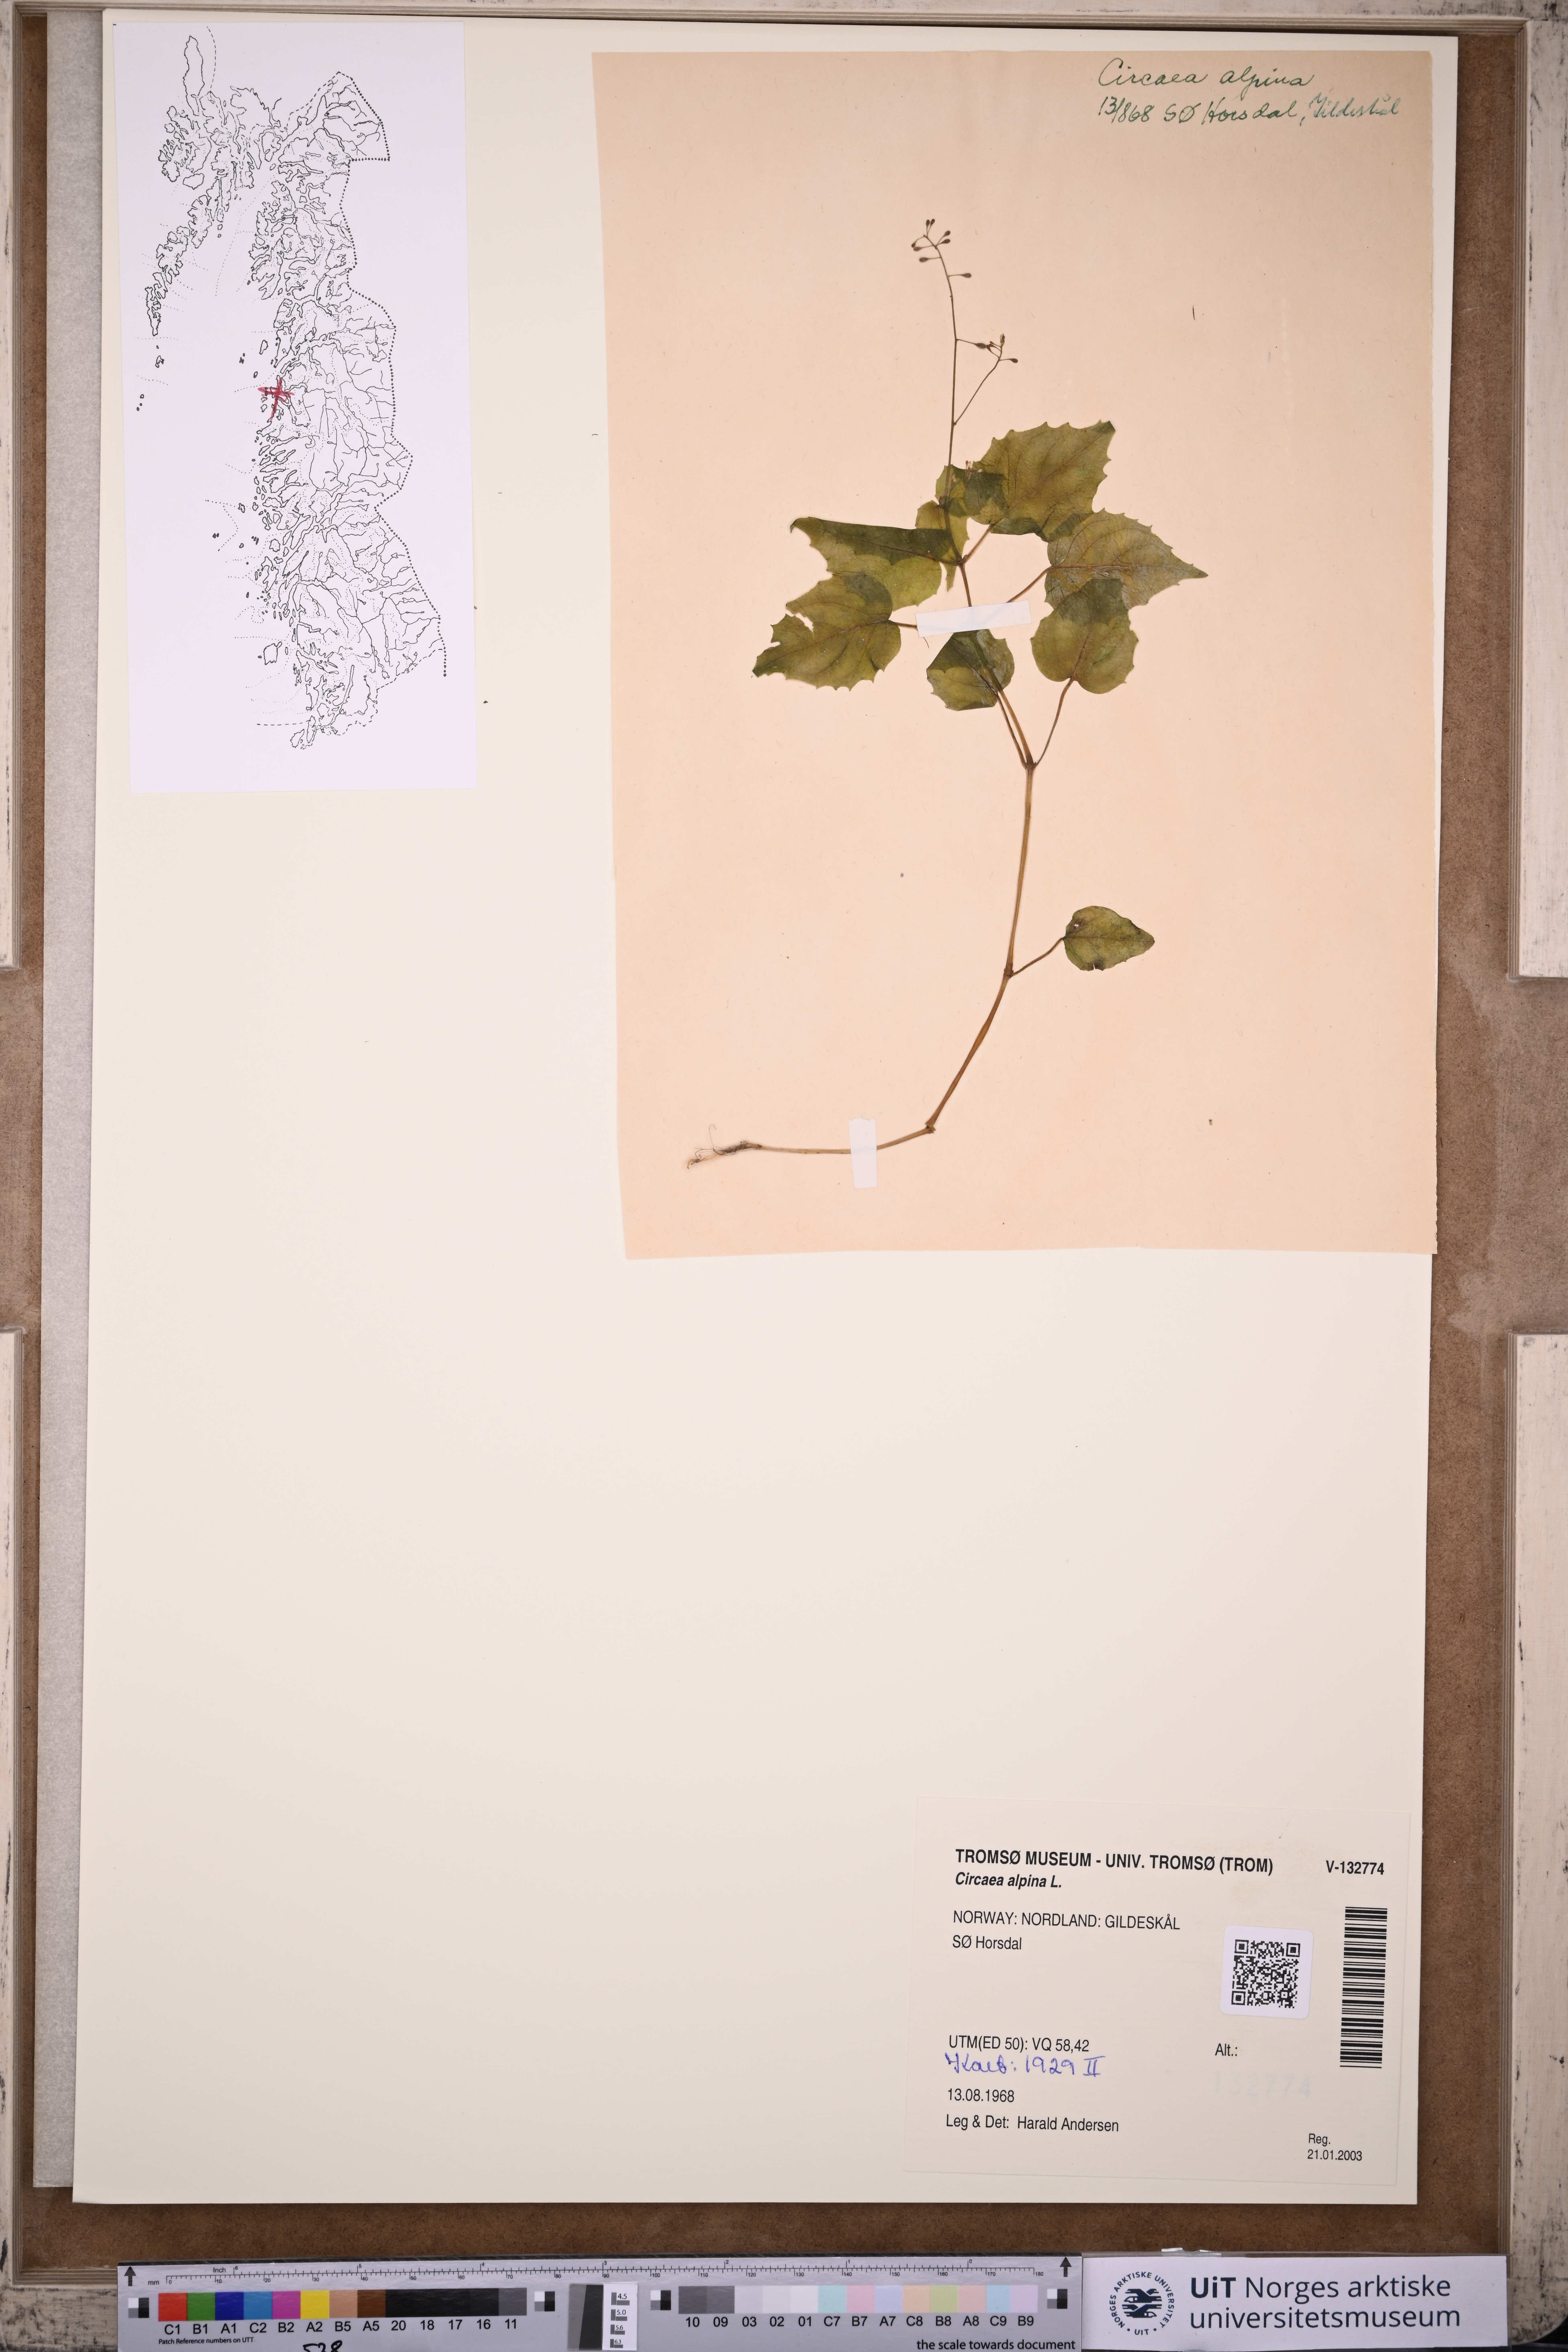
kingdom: Plantae
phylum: Tracheophyta
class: Magnoliopsida
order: Myrtales
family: Onagraceae
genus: Circaea
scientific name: Circaea alpina
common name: Alpine enchanter's-nightshade
